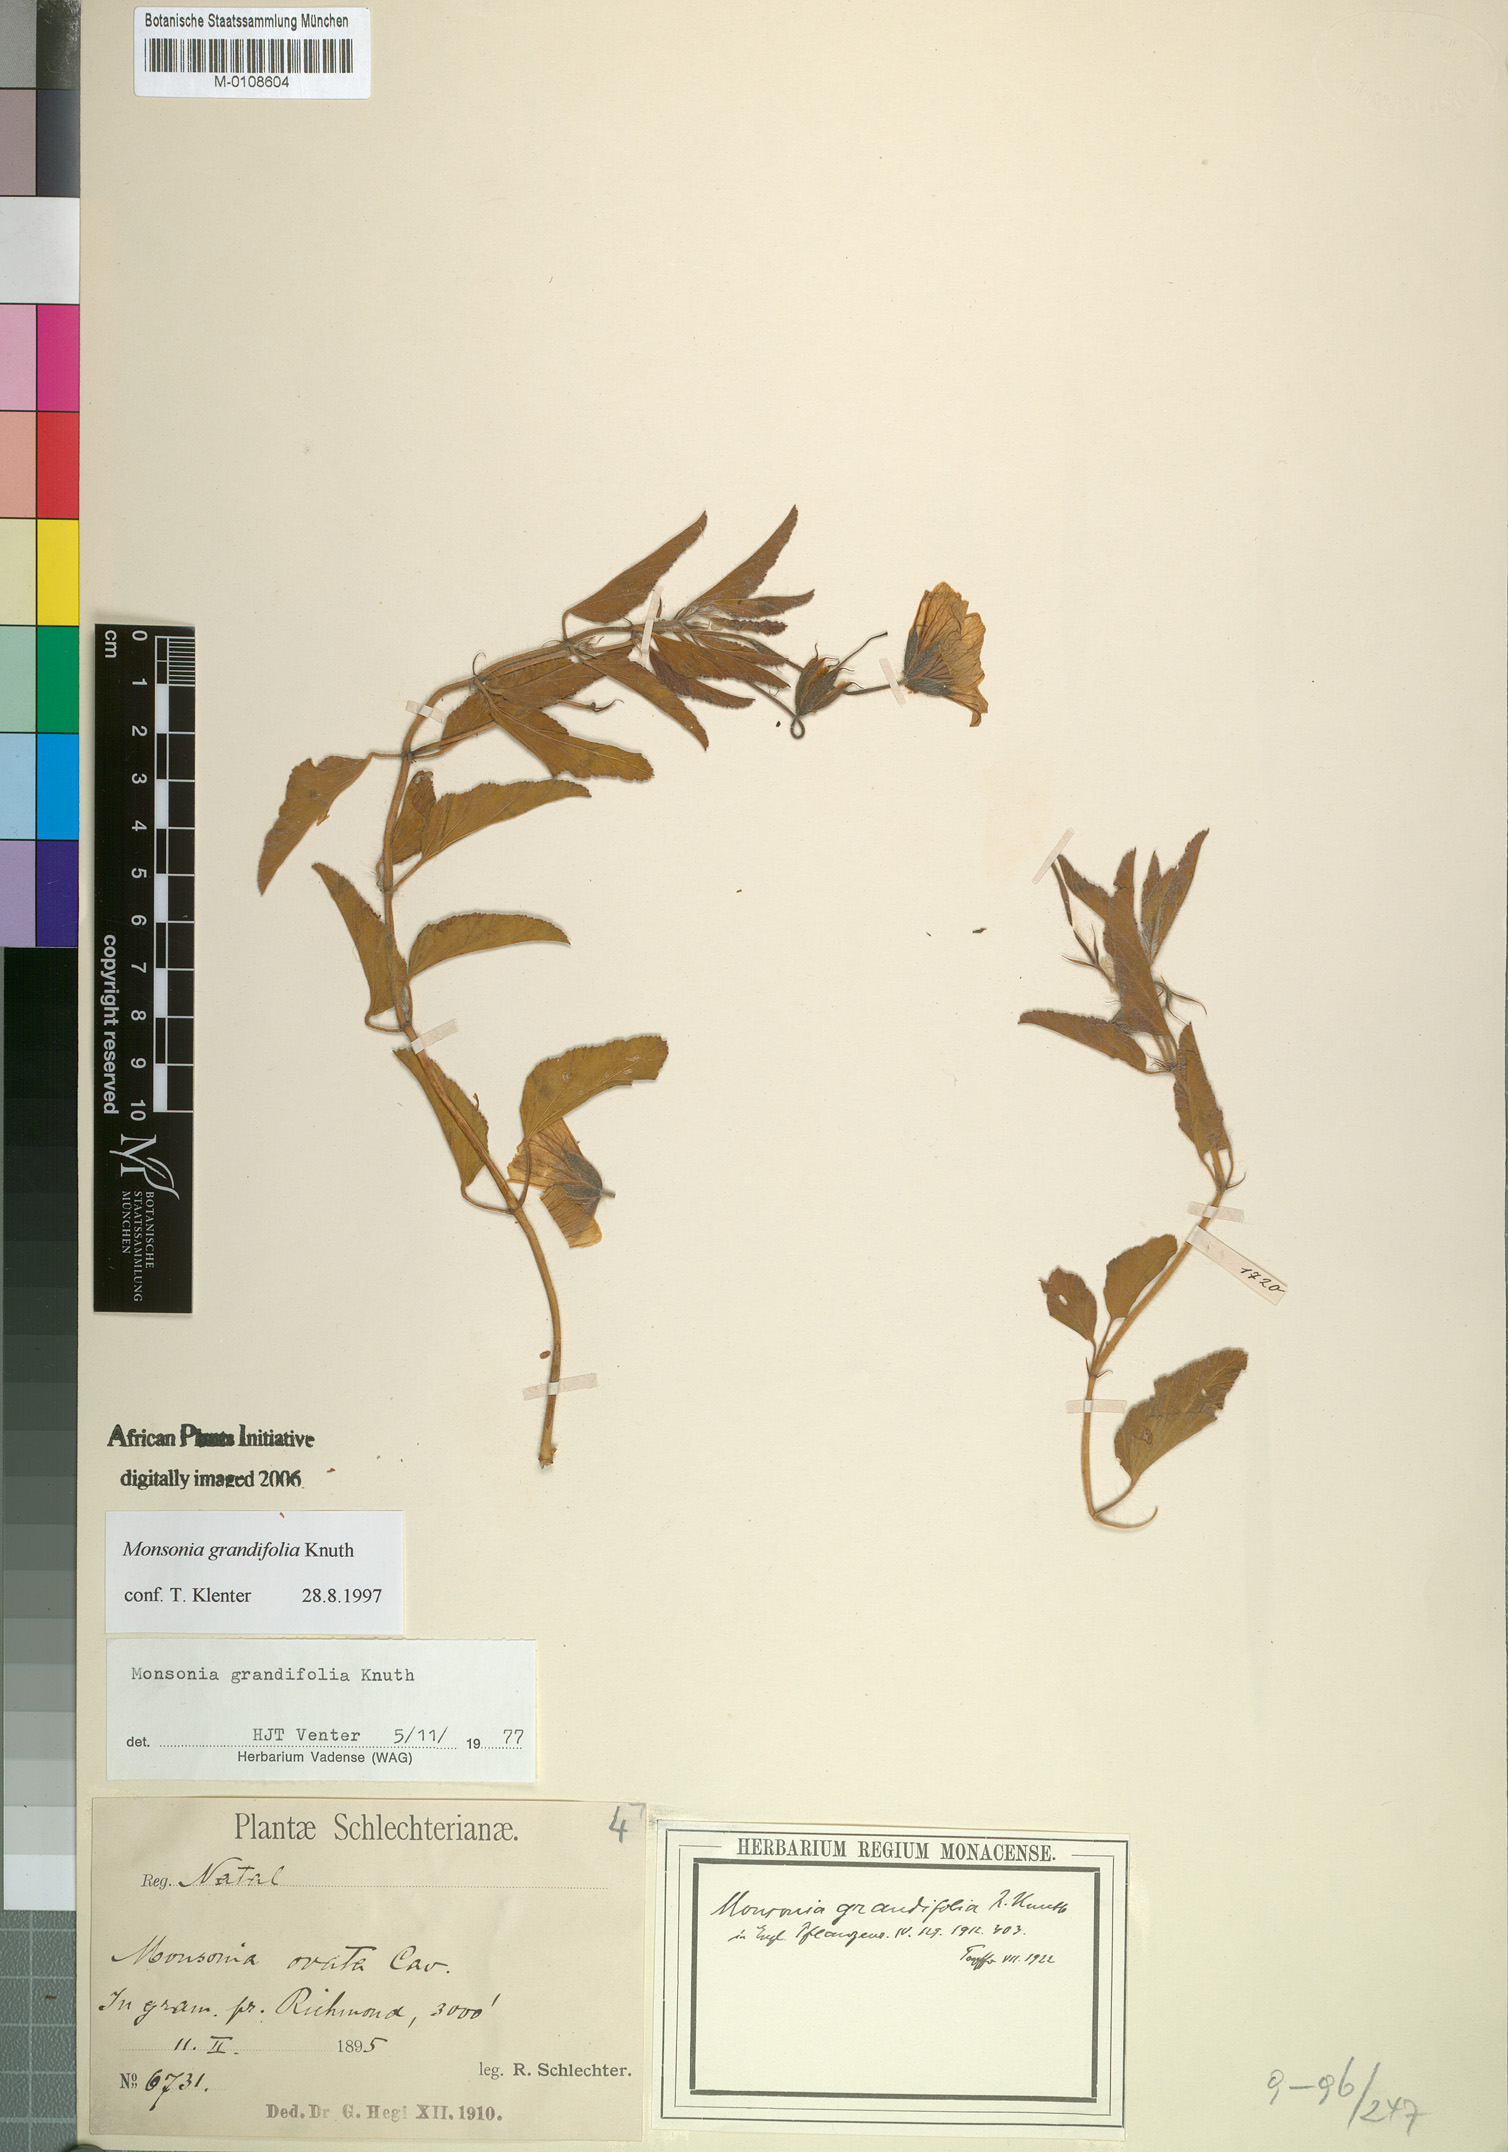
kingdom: Plantae
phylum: Tracheophyta
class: Magnoliopsida
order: Geraniales
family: Geraniaceae
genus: Monsonia
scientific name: Monsonia grandifolia
